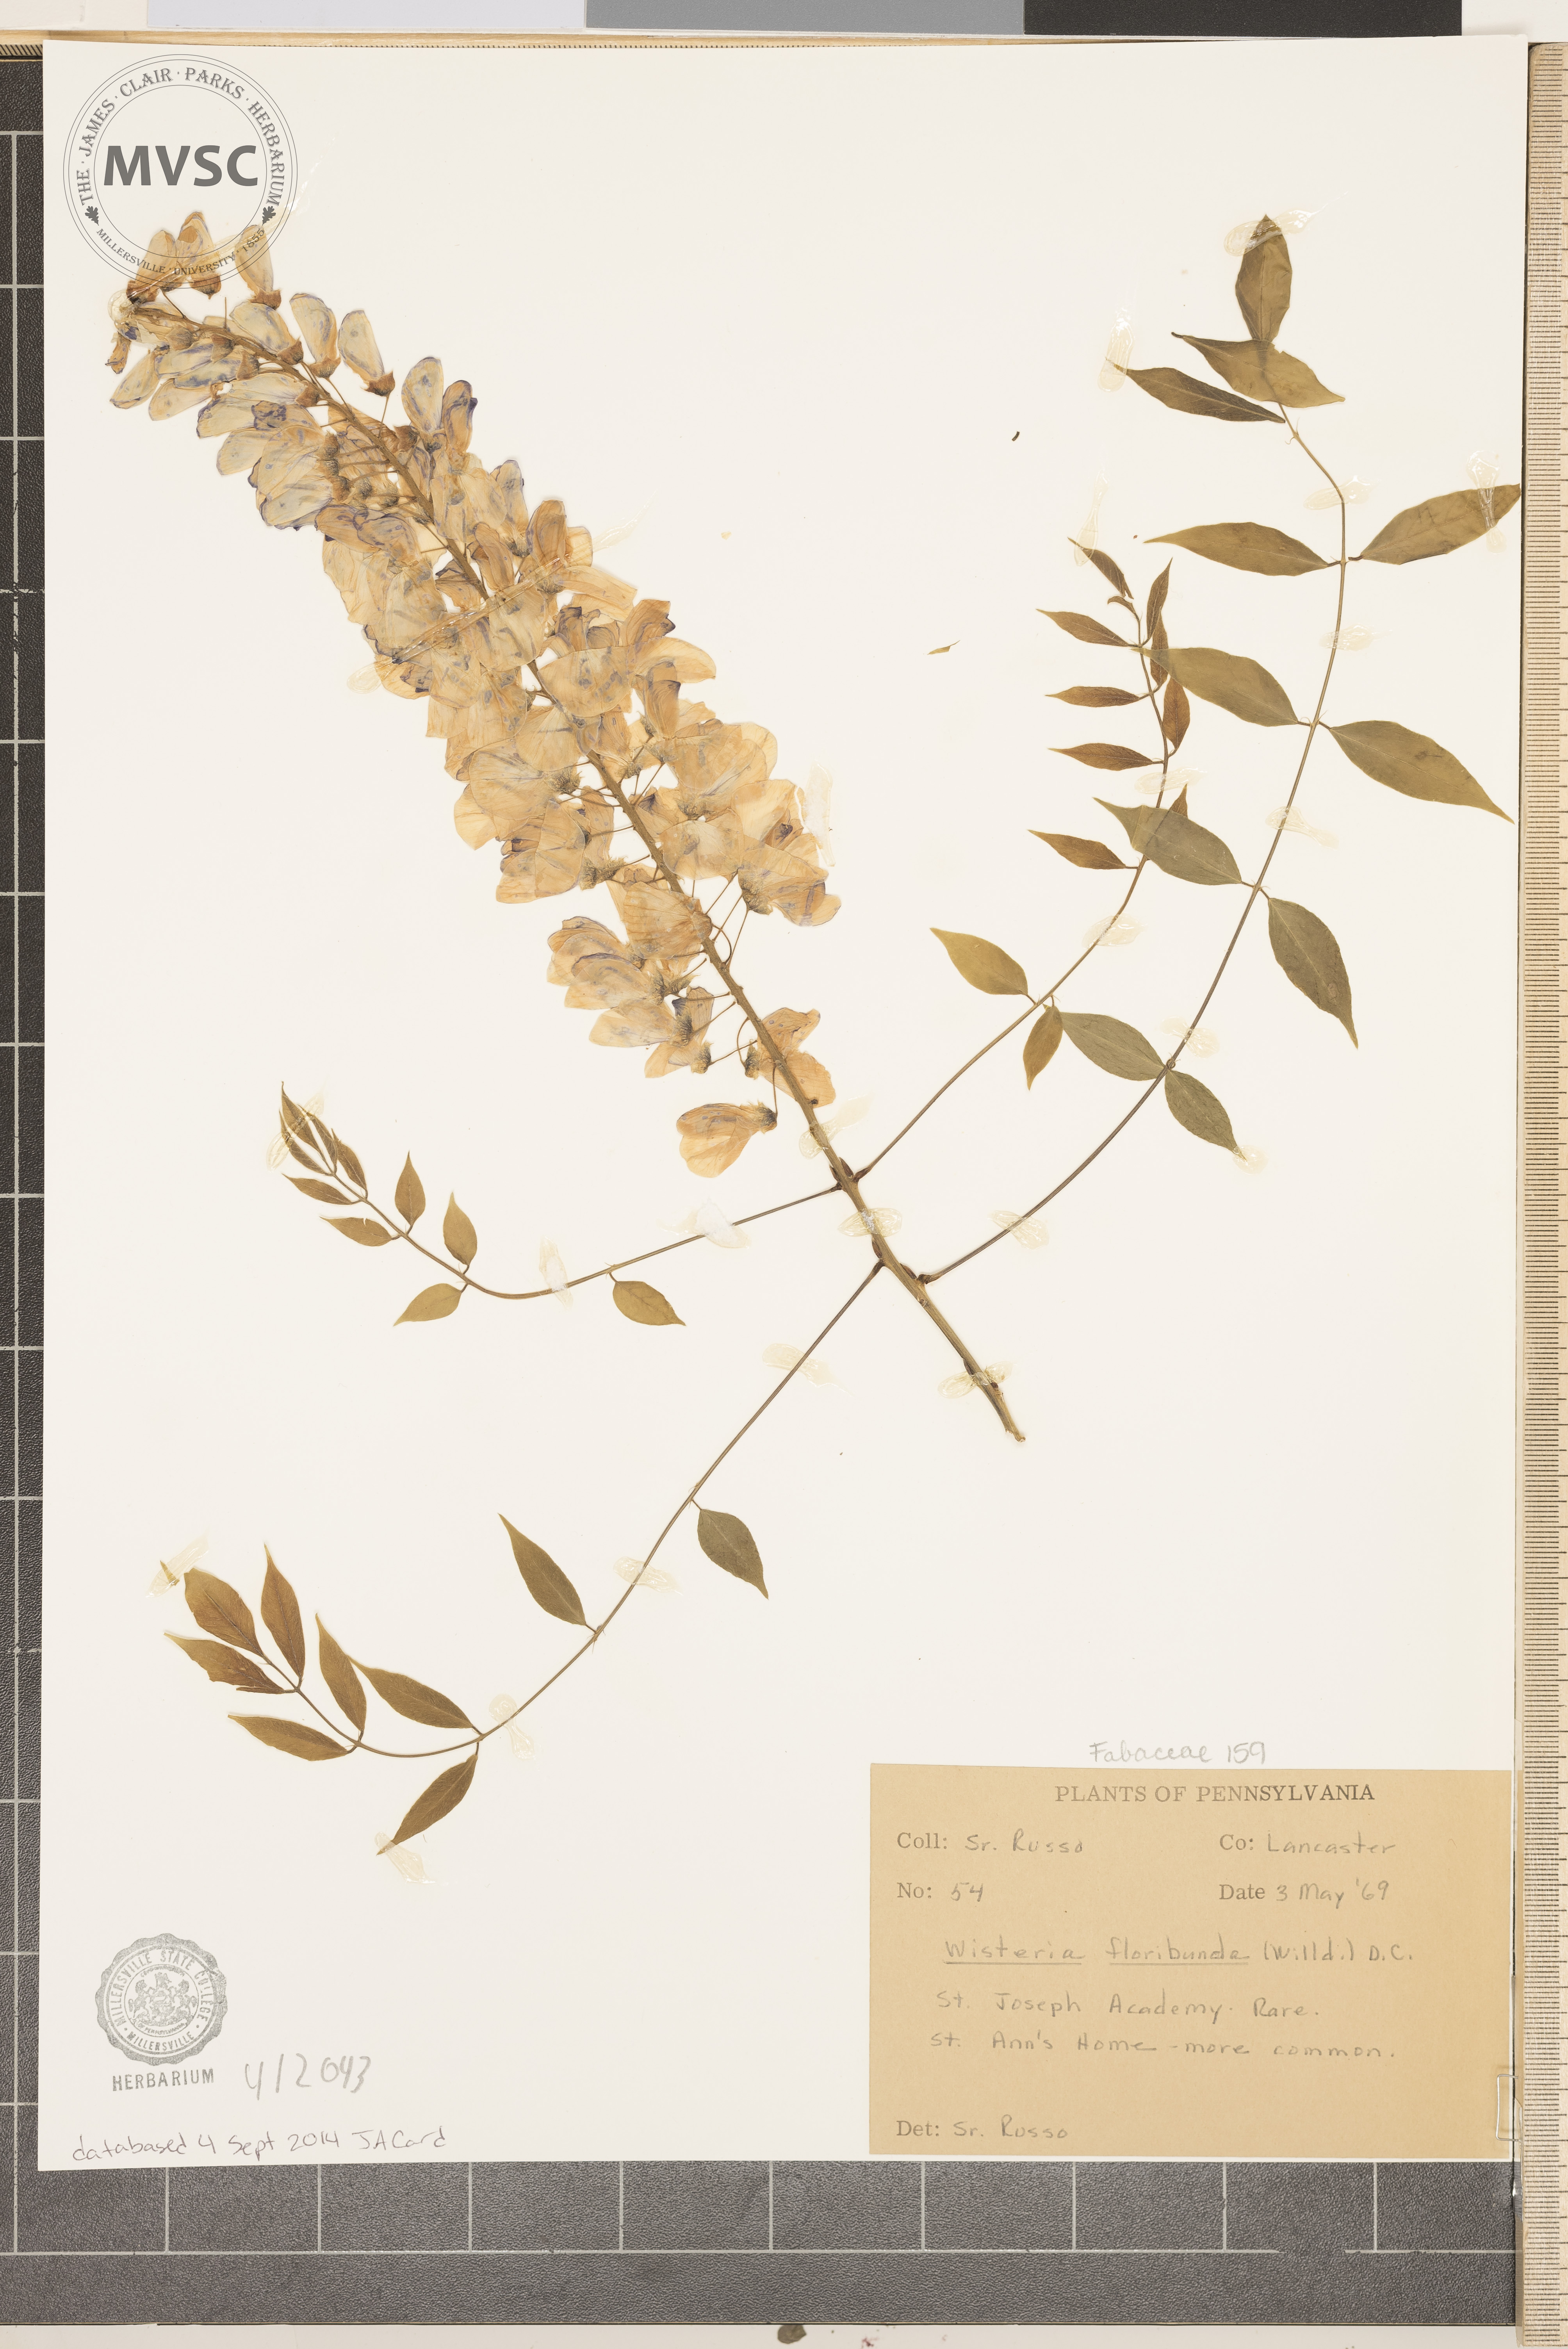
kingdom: Plantae
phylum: Tracheophyta
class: Magnoliopsida
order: Fabales
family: Fabaceae
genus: Wisteria
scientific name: Wisteria floribunda
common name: Japanese wisteria
